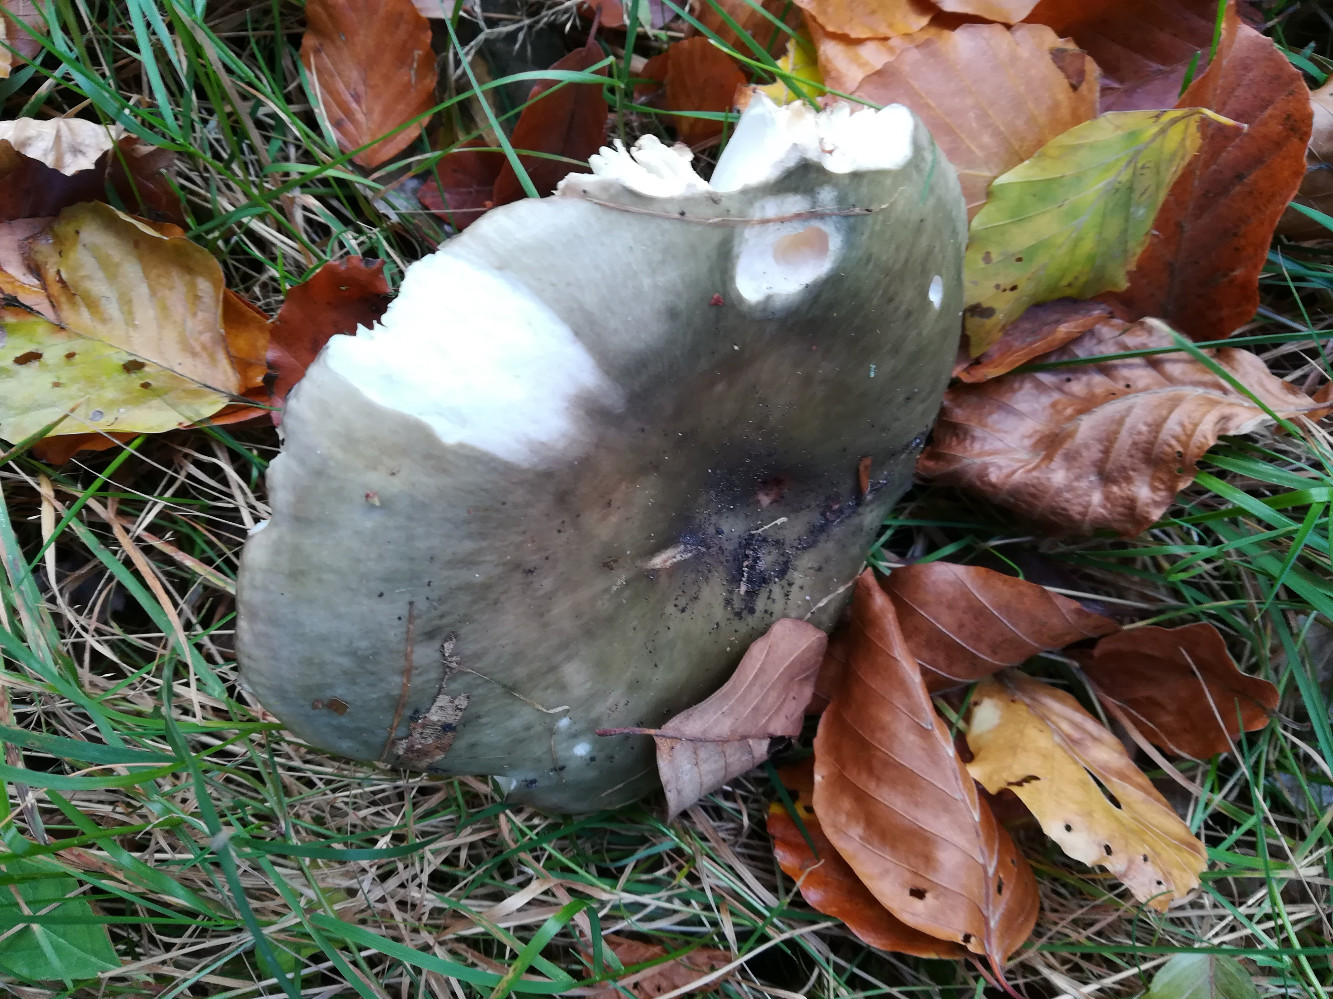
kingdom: Fungi
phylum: Basidiomycota
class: Agaricomycetes
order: Russulales
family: Russulaceae
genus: Russula
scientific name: Russula cyanoxantha
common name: broget skørhat
